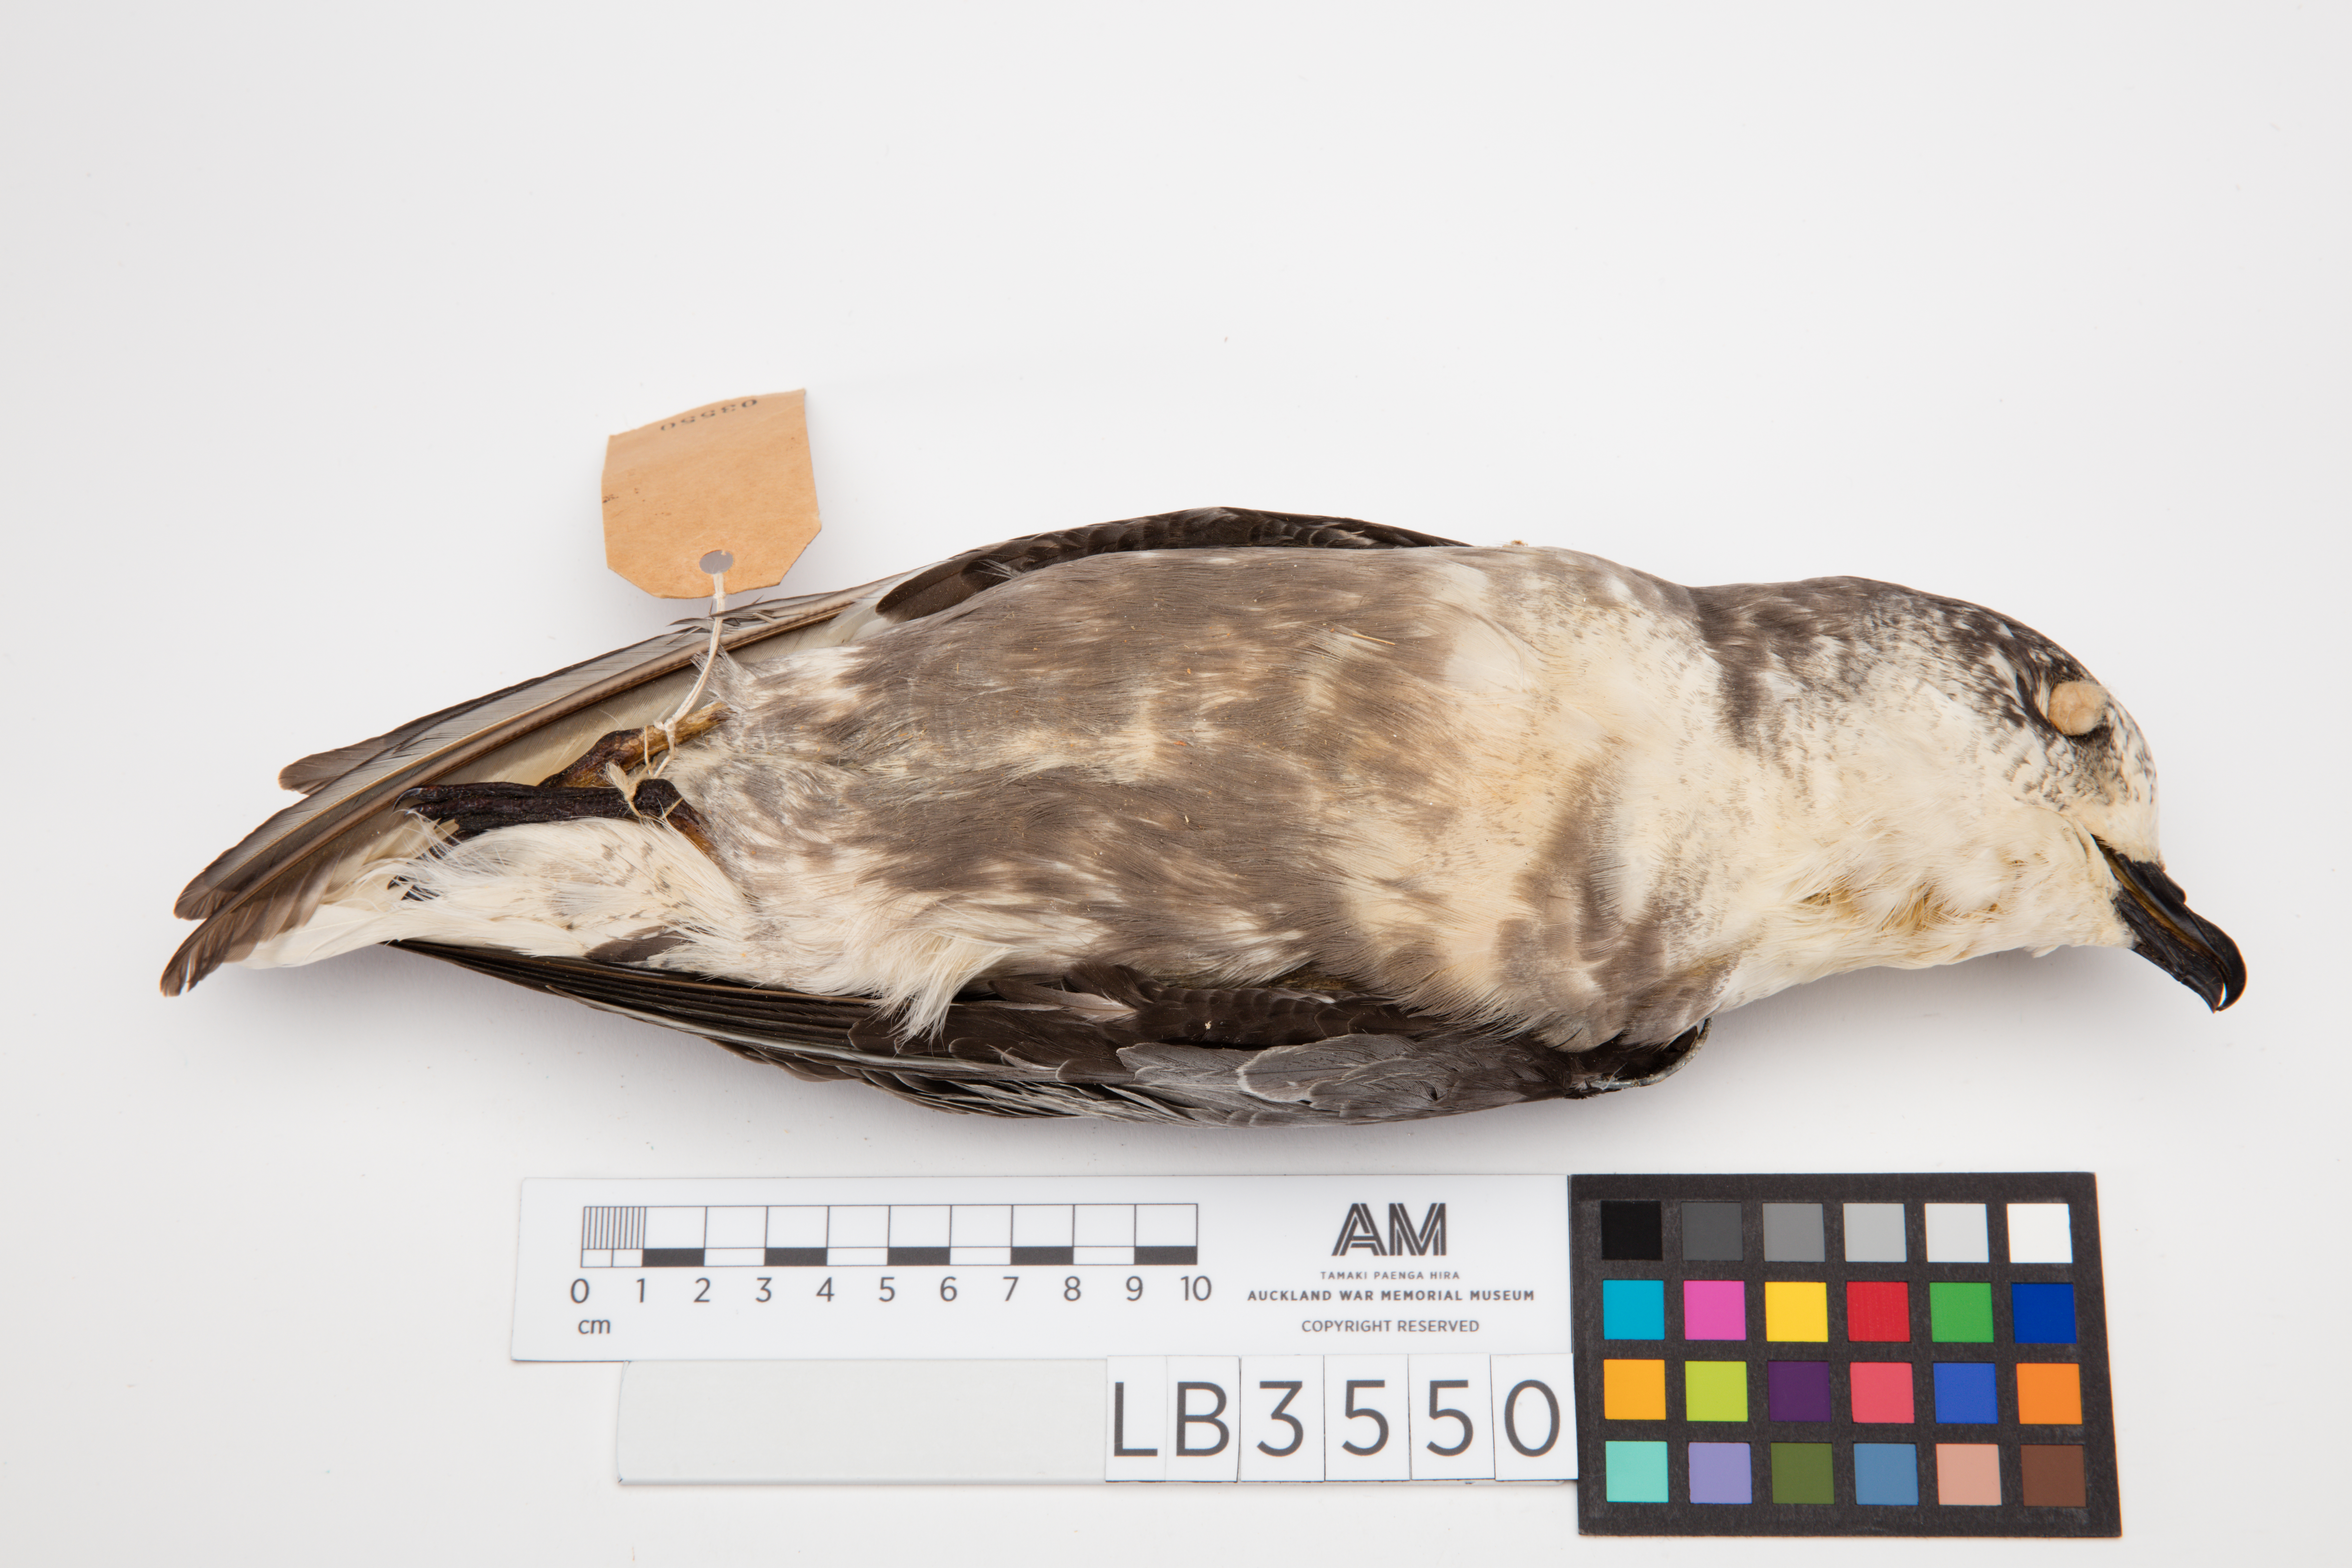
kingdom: Animalia
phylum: Chordata
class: Aves
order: Procellariiformes
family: Procellariidae
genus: Pterodroma
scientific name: Pterodroma inexpectata
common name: Mottled petrel
